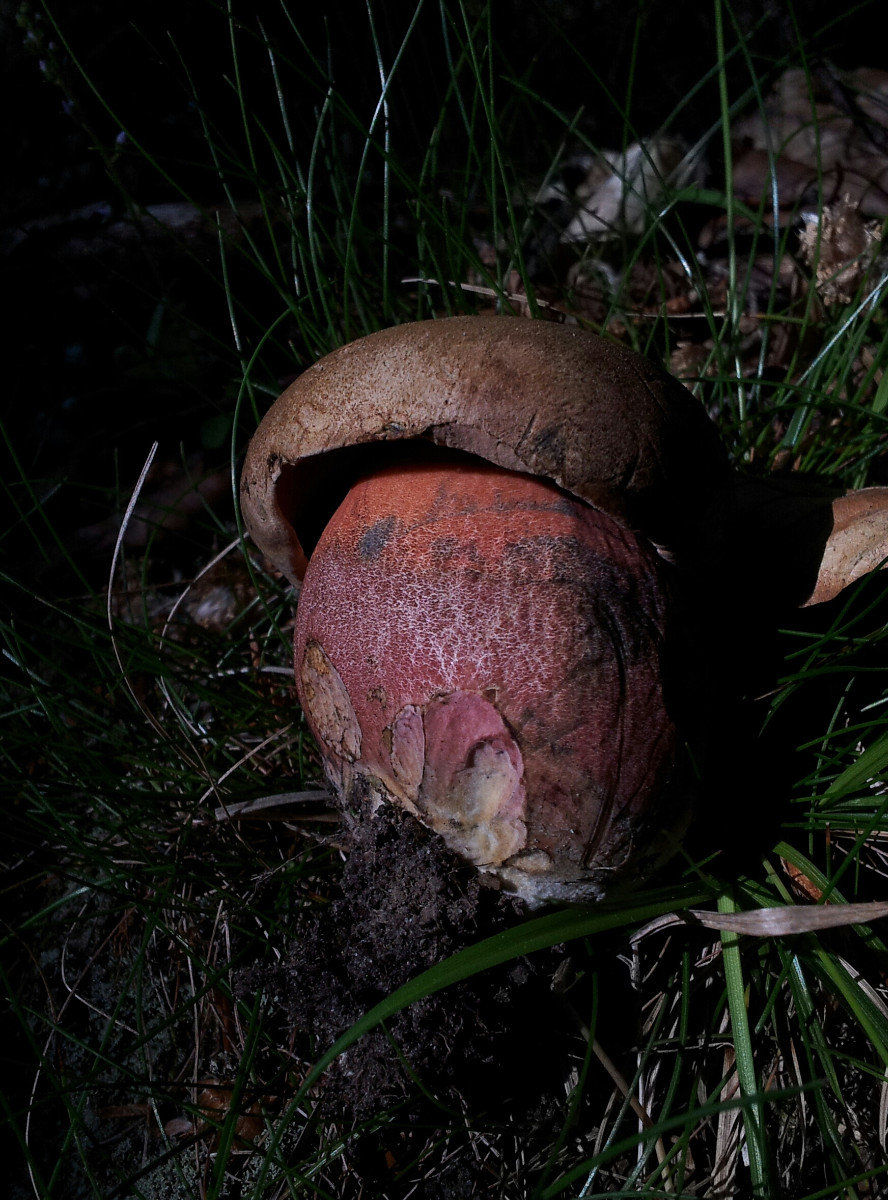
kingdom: Fungi
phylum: Basidiomycota
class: Agaricomycetes
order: Boletales
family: Boletaceae
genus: Neoboletus
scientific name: Neoboletus erythropus
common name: punktstokket indigorørhat
